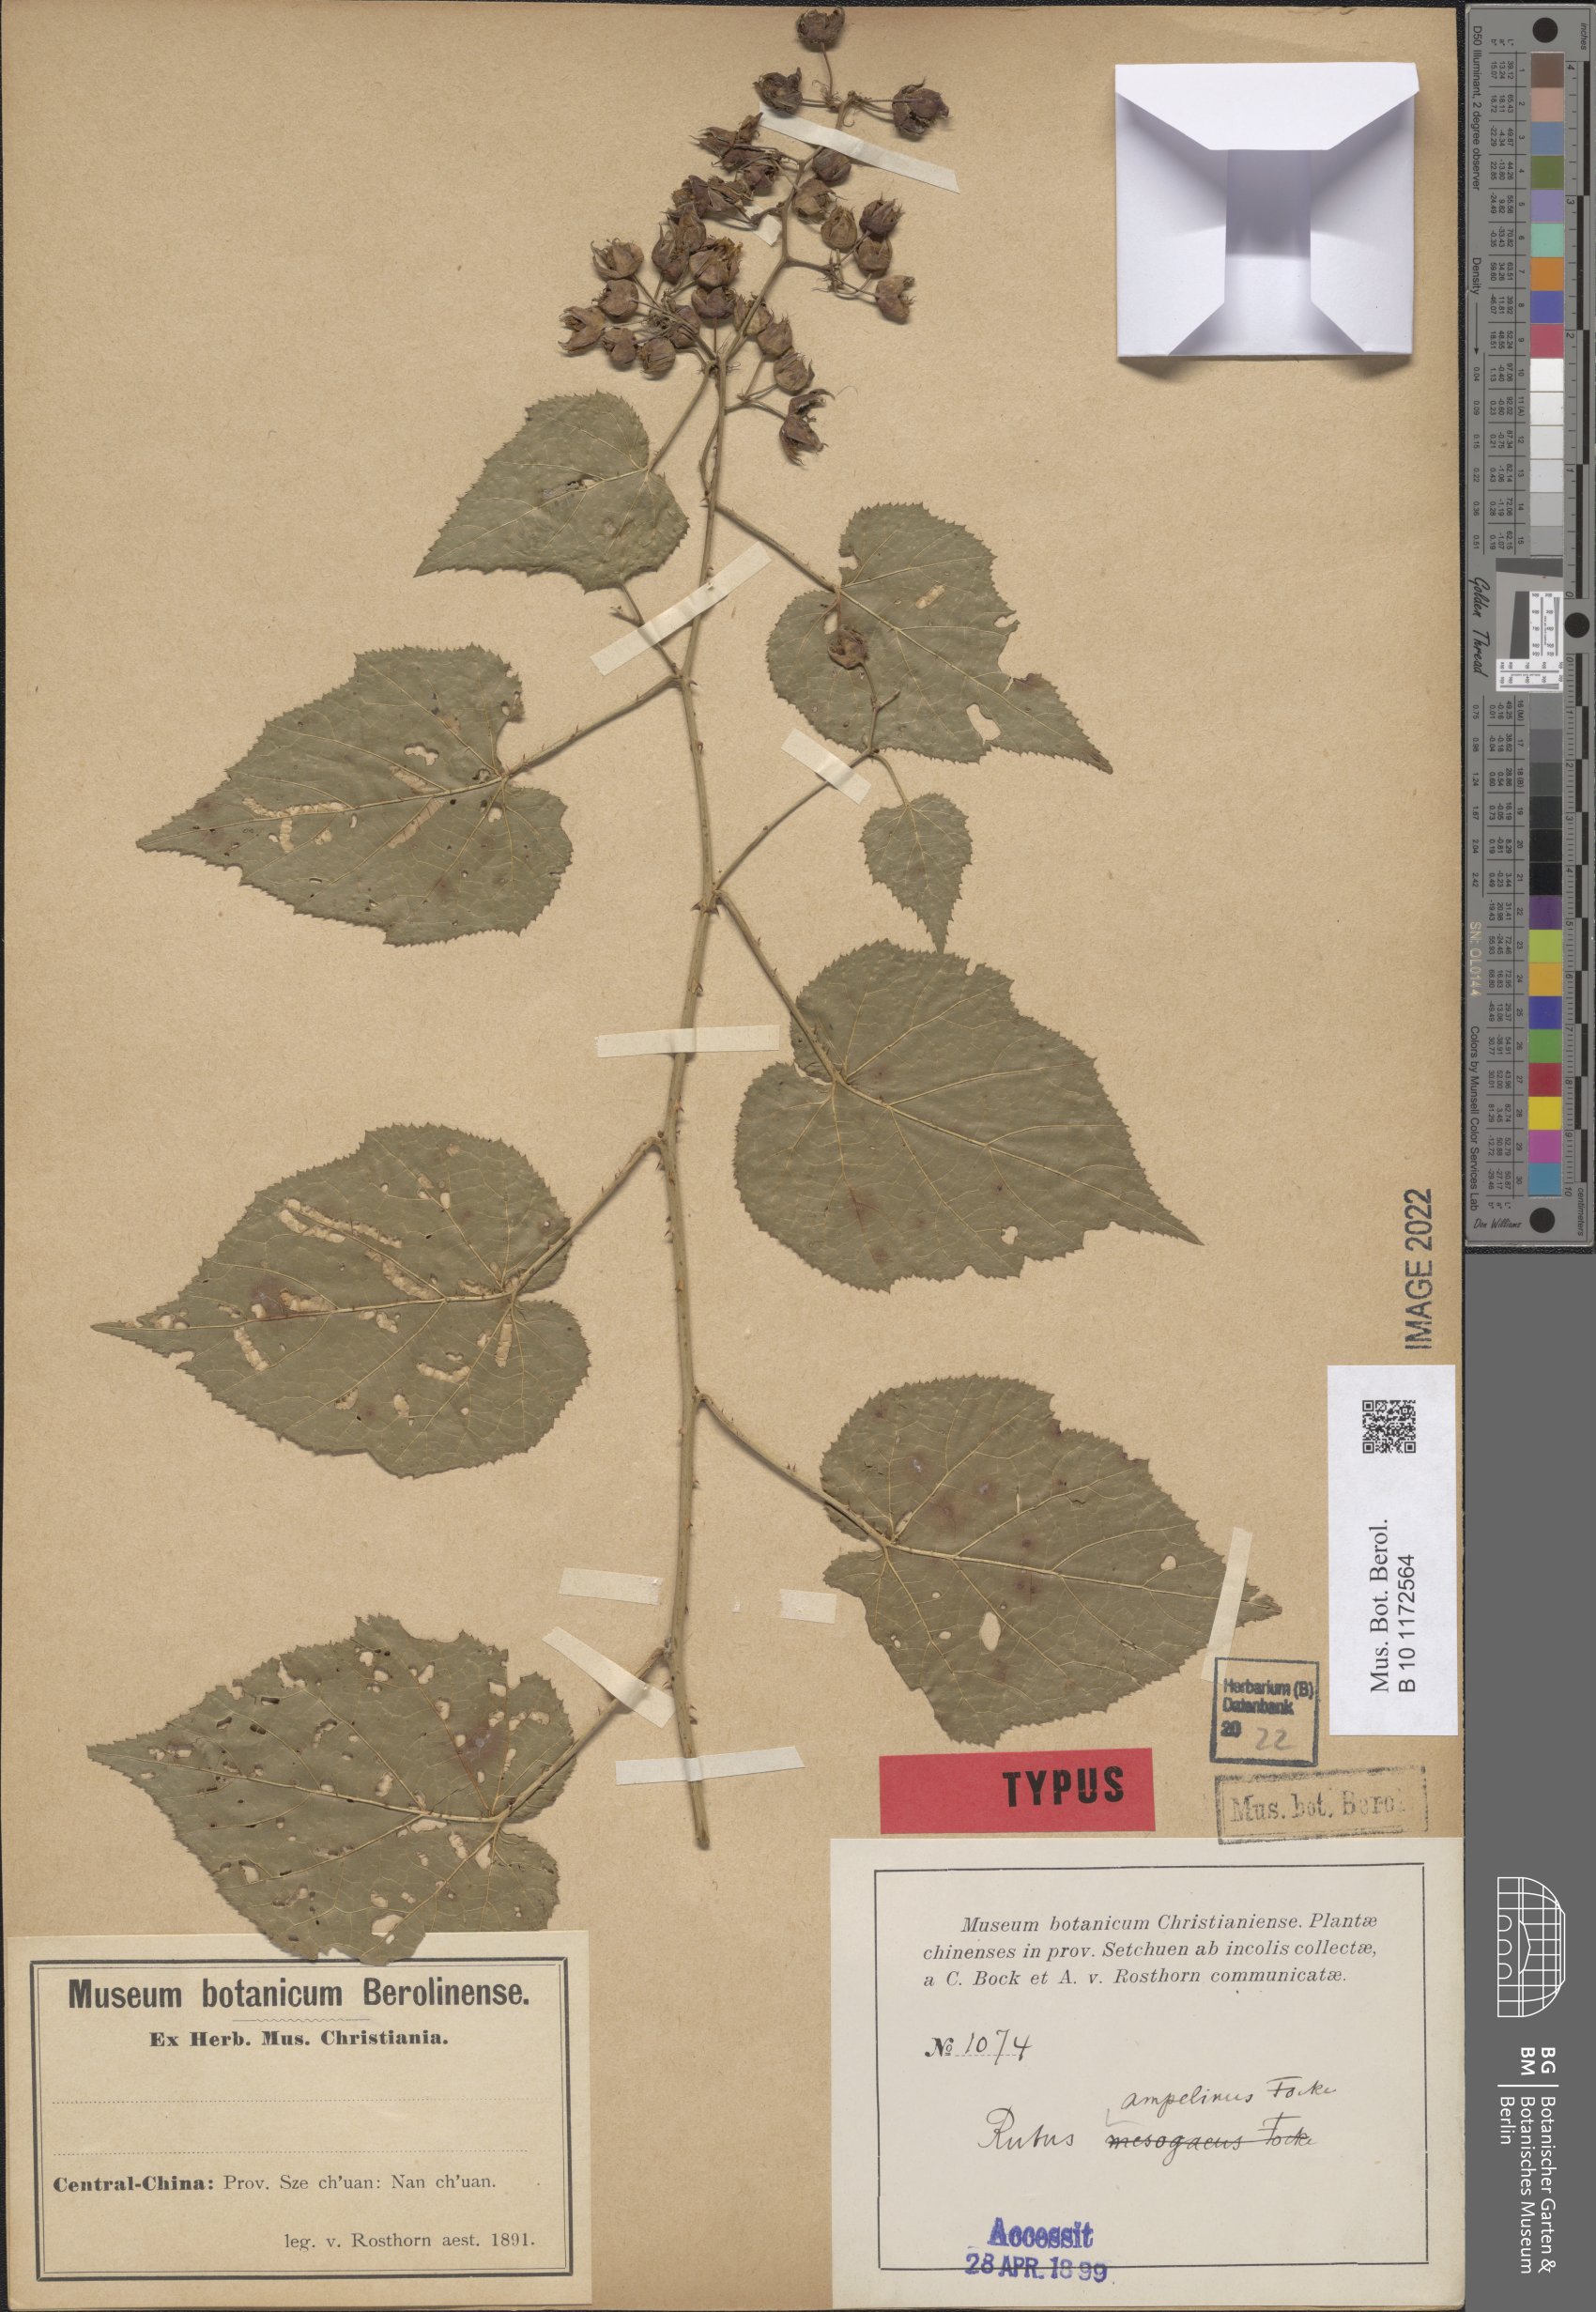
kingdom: Plantae
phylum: Tracheophyta
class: Magnoliopsida
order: Rosales
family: Rosaceae
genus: Rubus
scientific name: Rubus hakonensis
